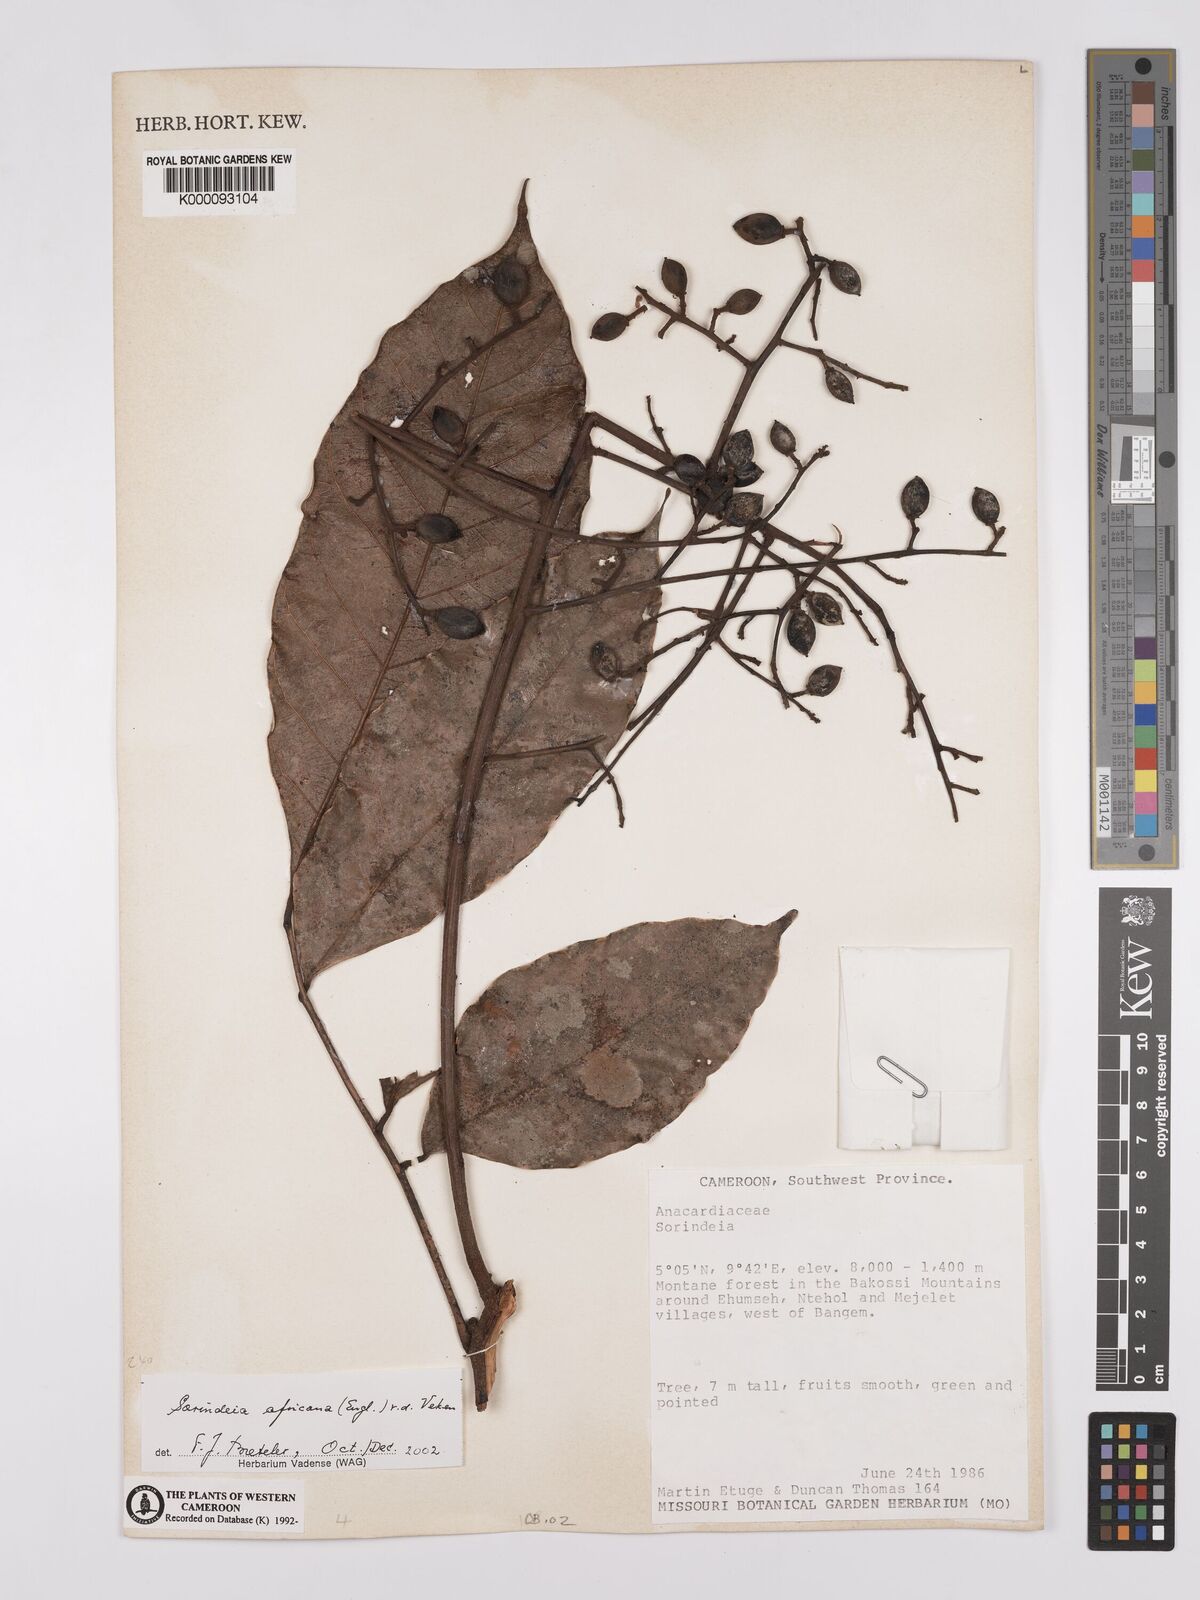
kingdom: Plantae
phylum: Tracheophyta
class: Magnoliopsida
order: Sapindales
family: Anacardiaceae
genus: Sorindeia
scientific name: Sorindeia africana
